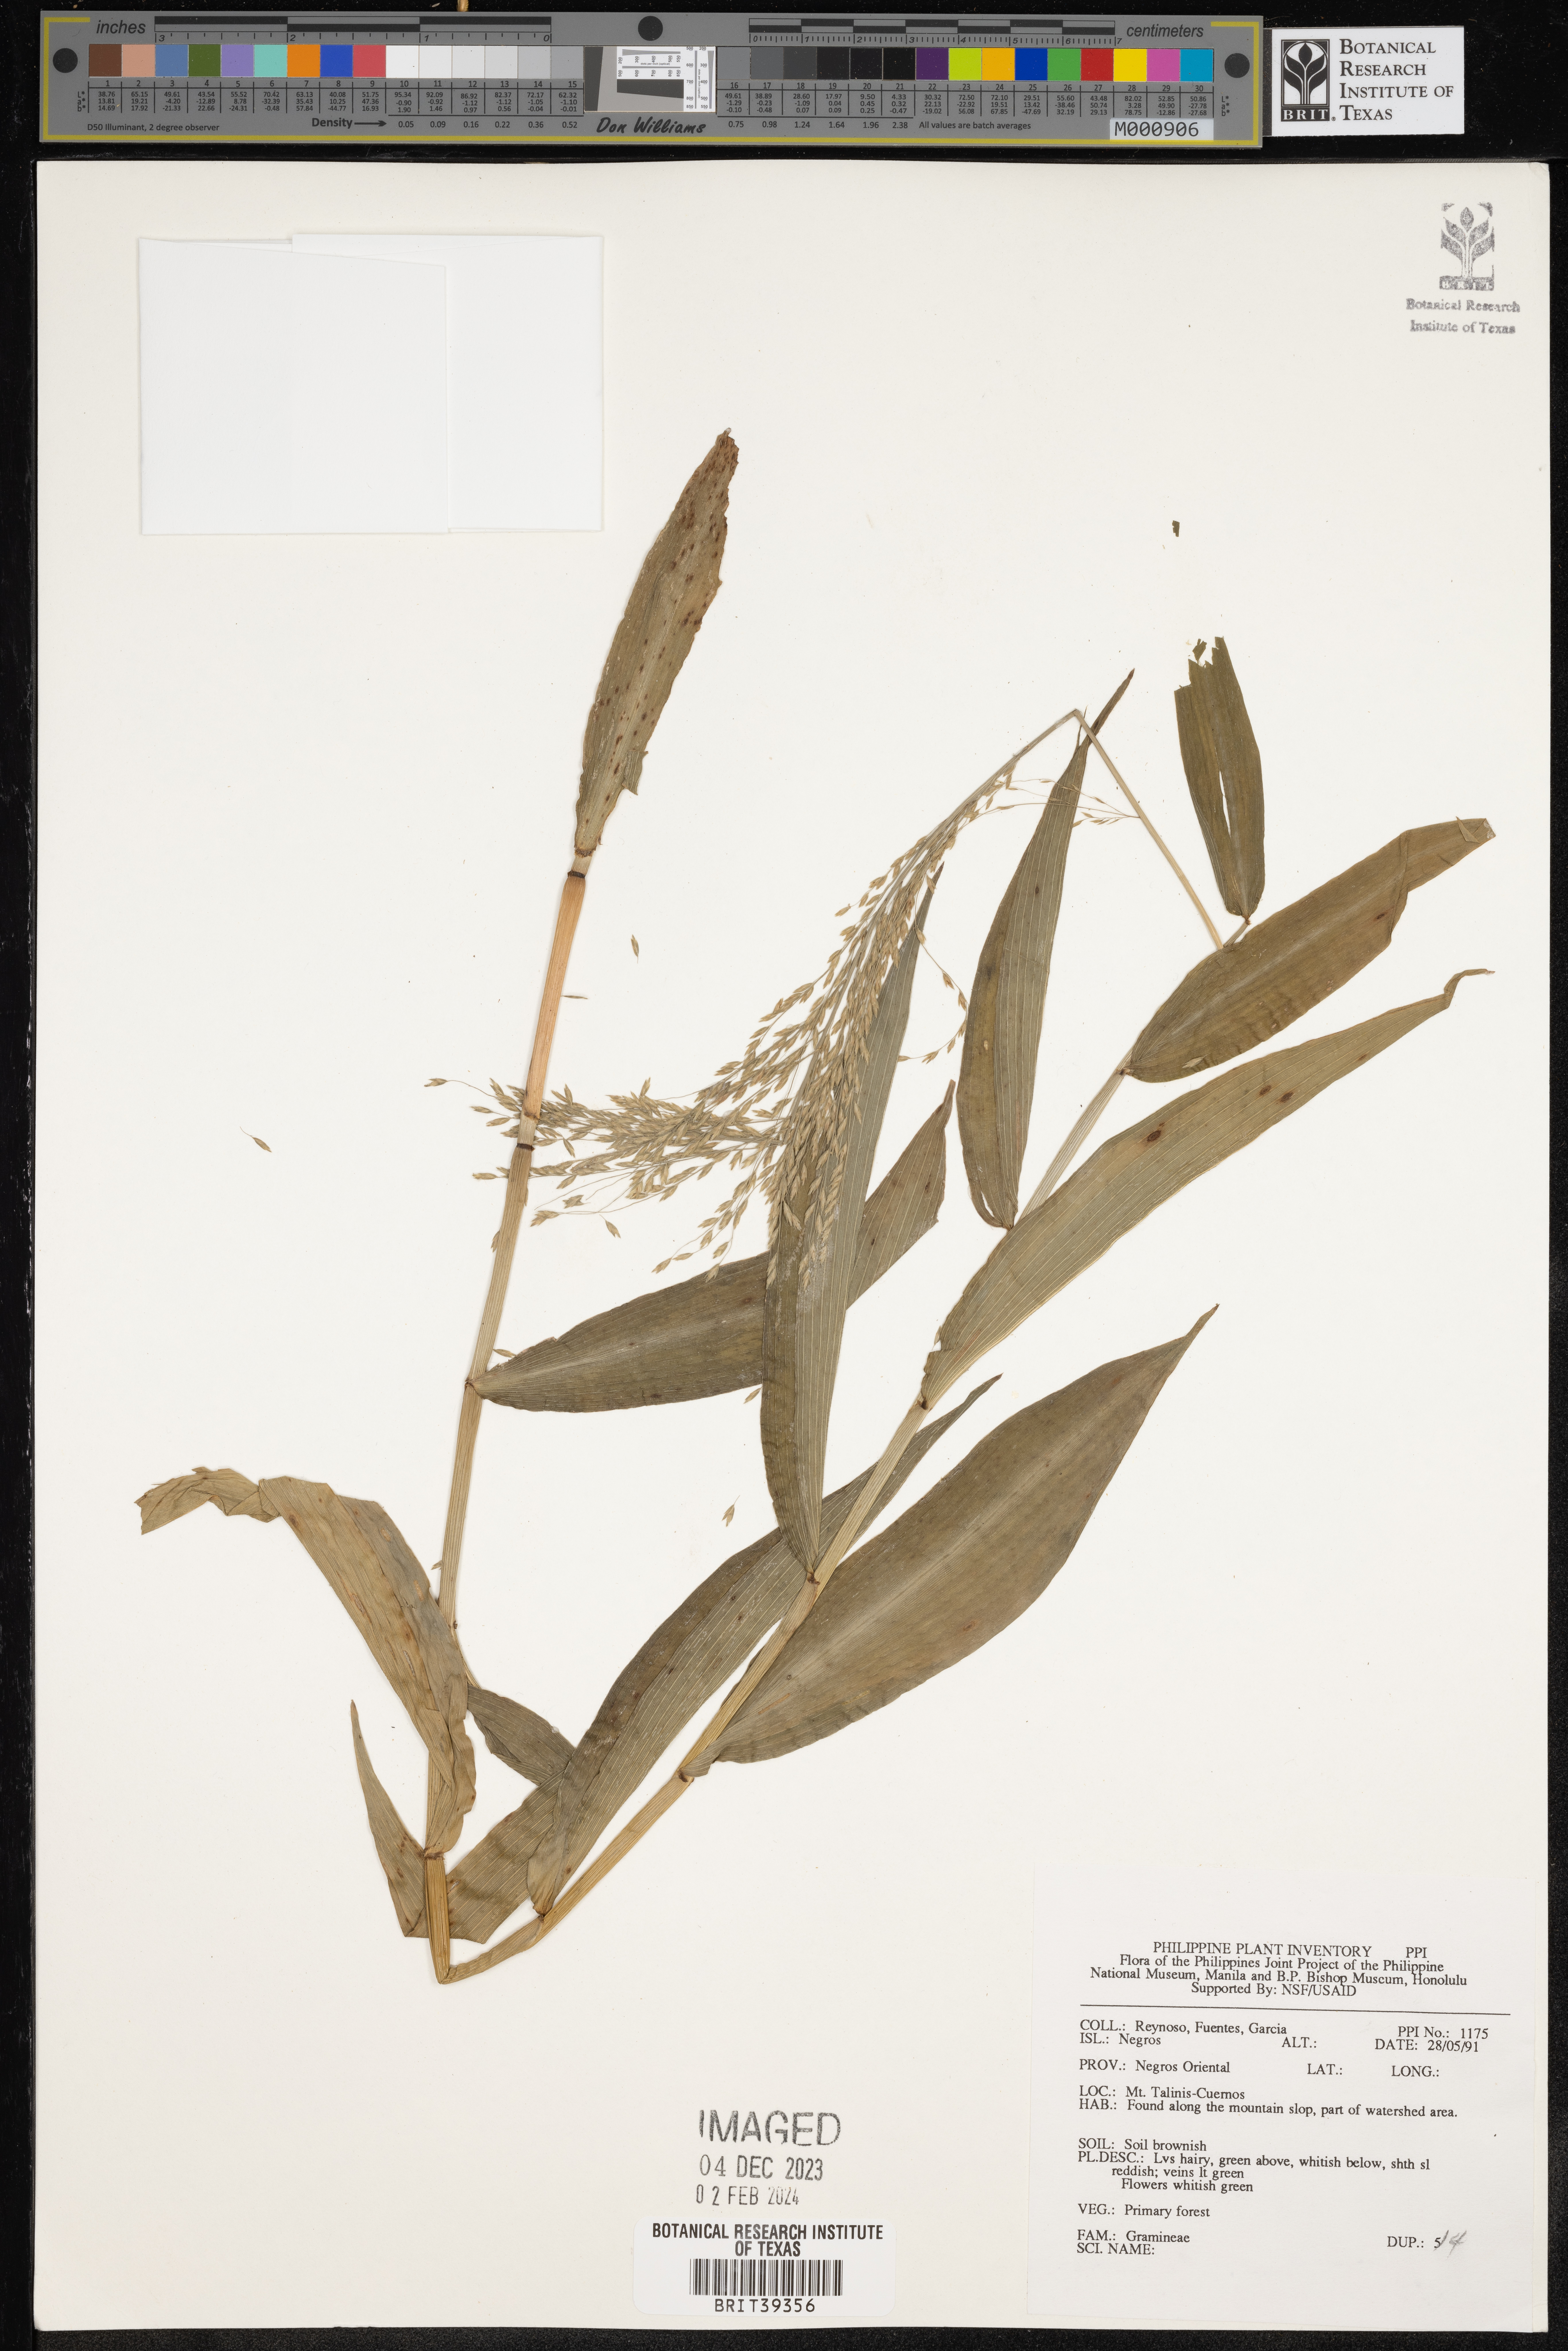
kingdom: Plantae
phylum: Tracheophyta
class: Liliopsida
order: Poales
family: Poaceae
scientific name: Poaceae
